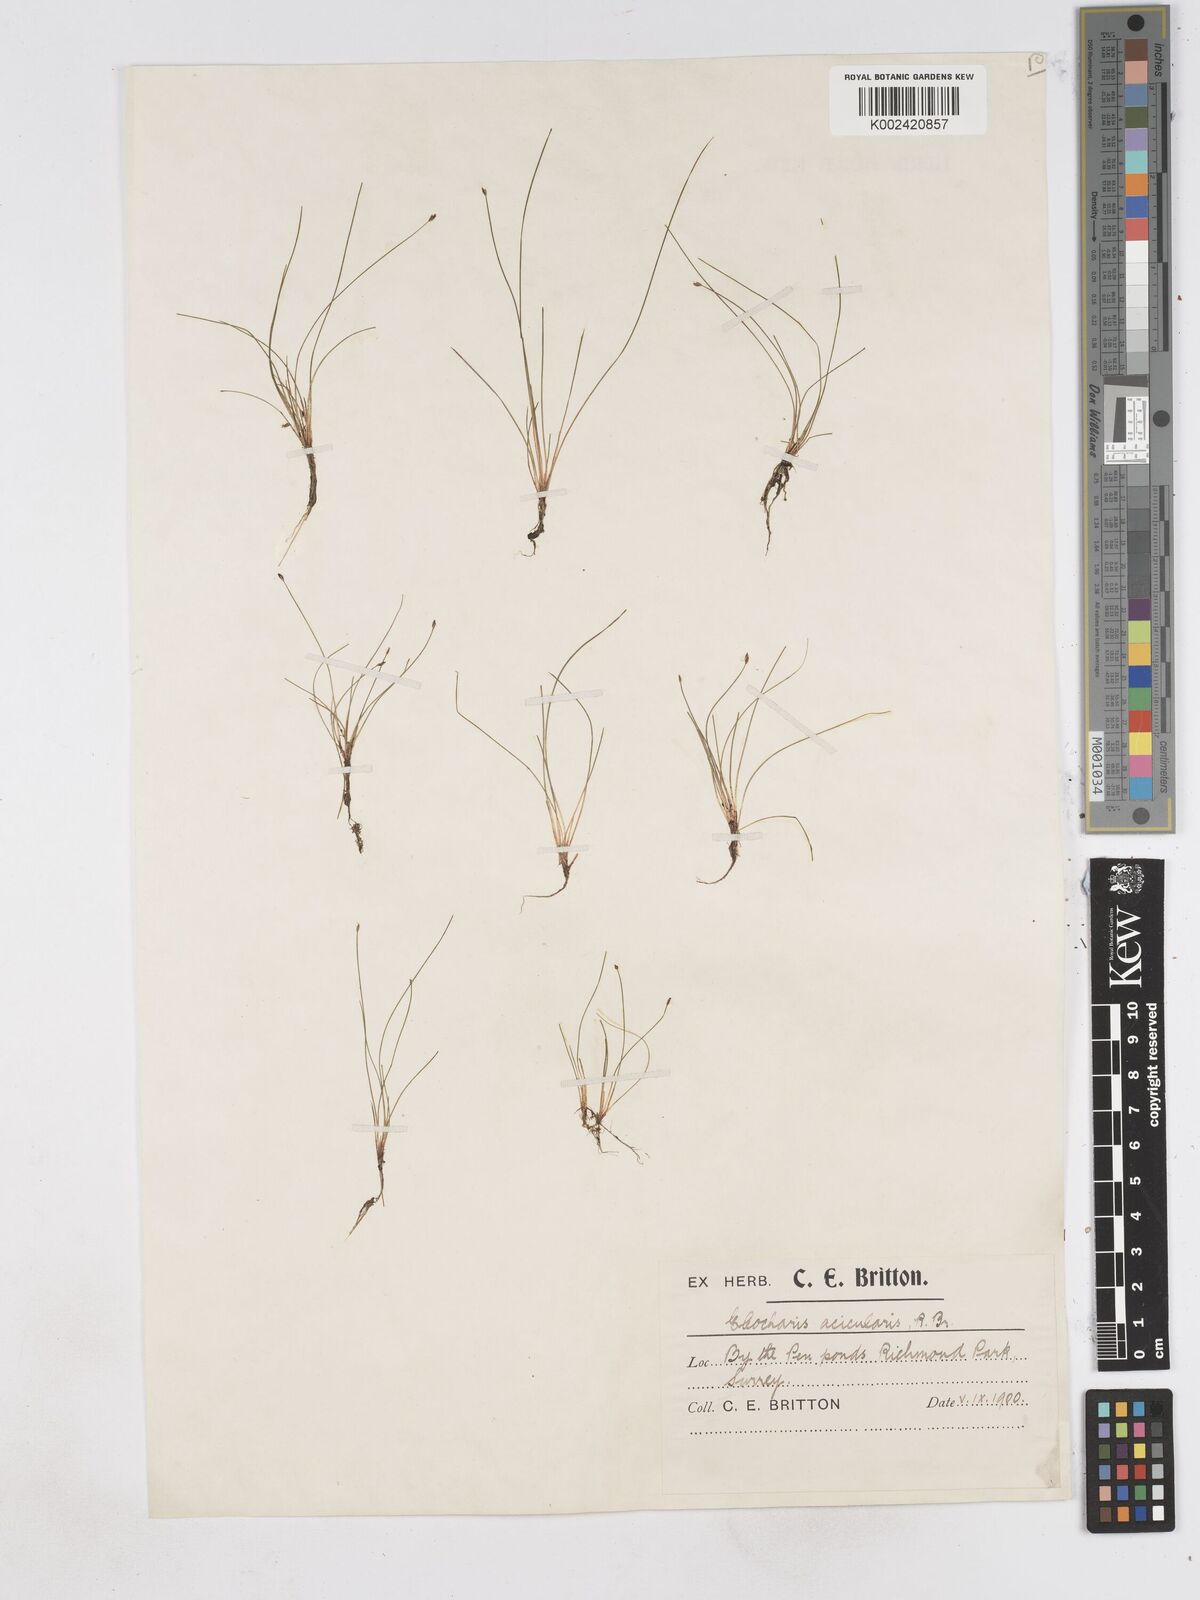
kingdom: Plantae
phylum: Tracheophyta
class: Liliopsida
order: Poales
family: Cyperaceae
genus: Eleocharis
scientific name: Eleocharis acicularis
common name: Needle spike-rush
